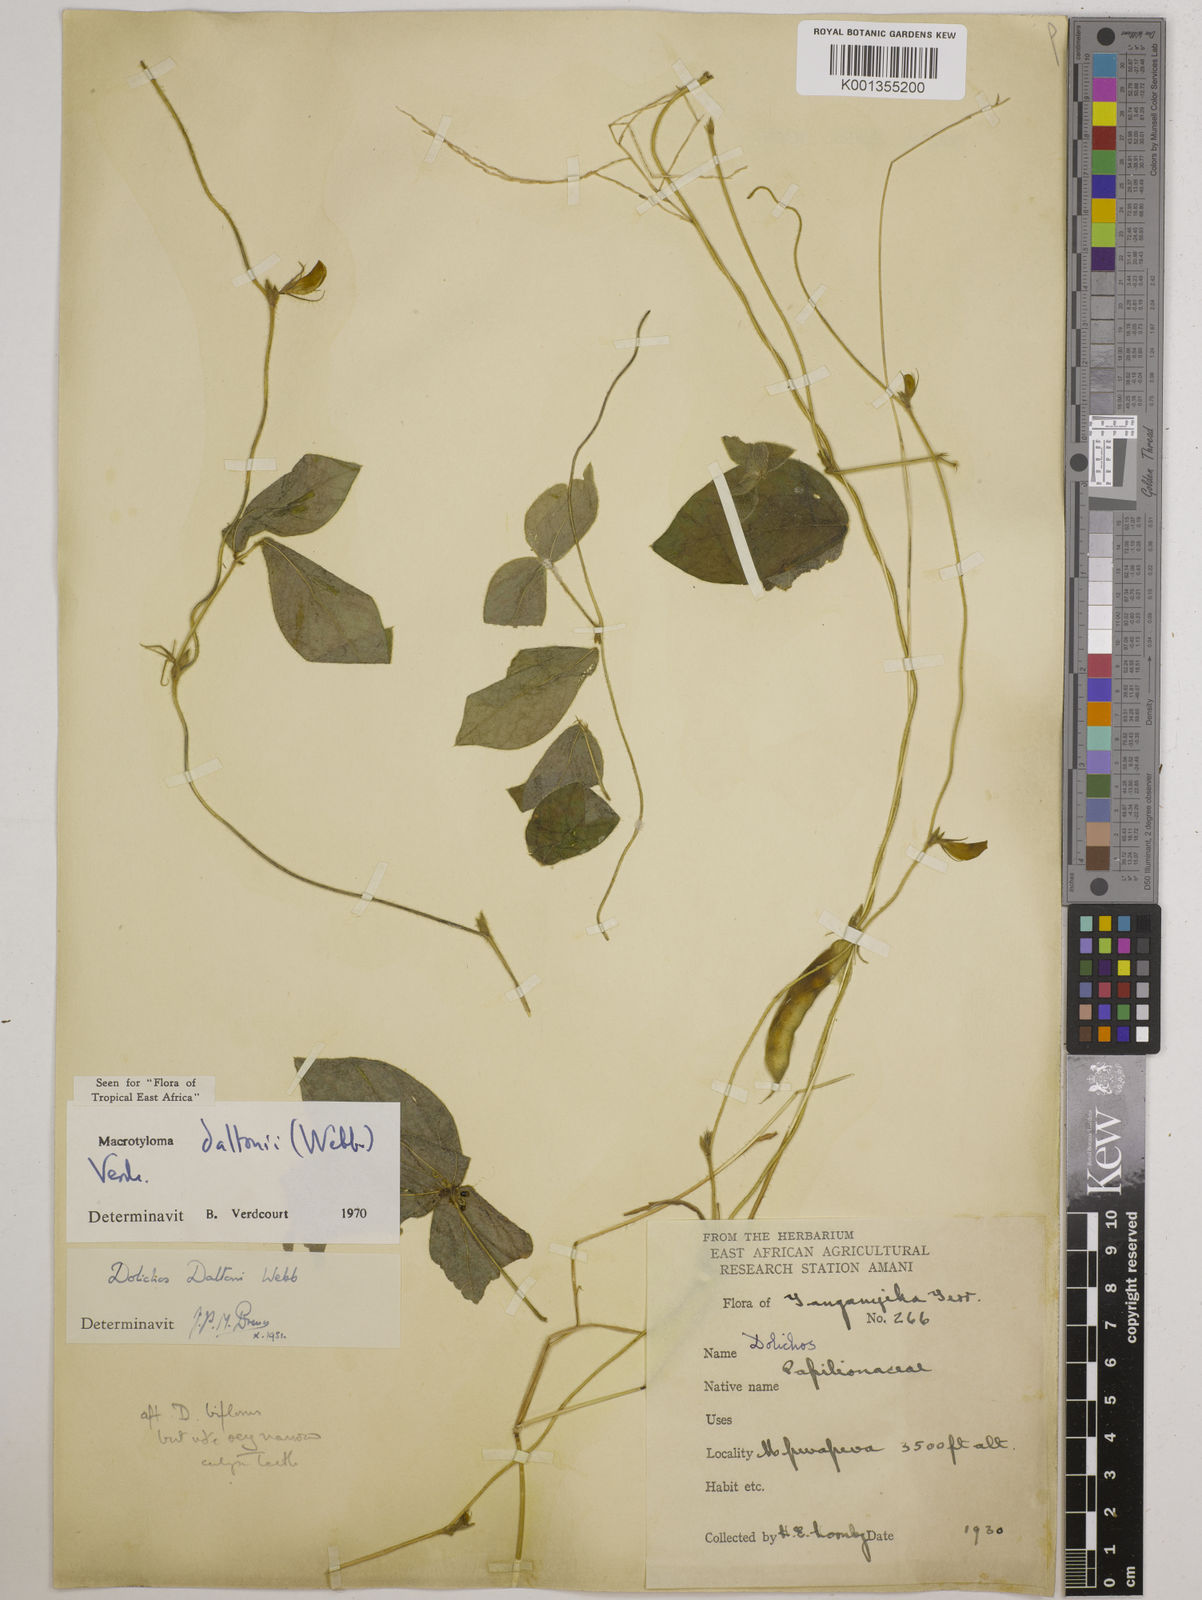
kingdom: Plantae
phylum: Tracheophyta
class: Magnoliopsida
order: Fabales
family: Fabaceae
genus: Macrotyloma
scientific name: Macrotyloma daltonii
